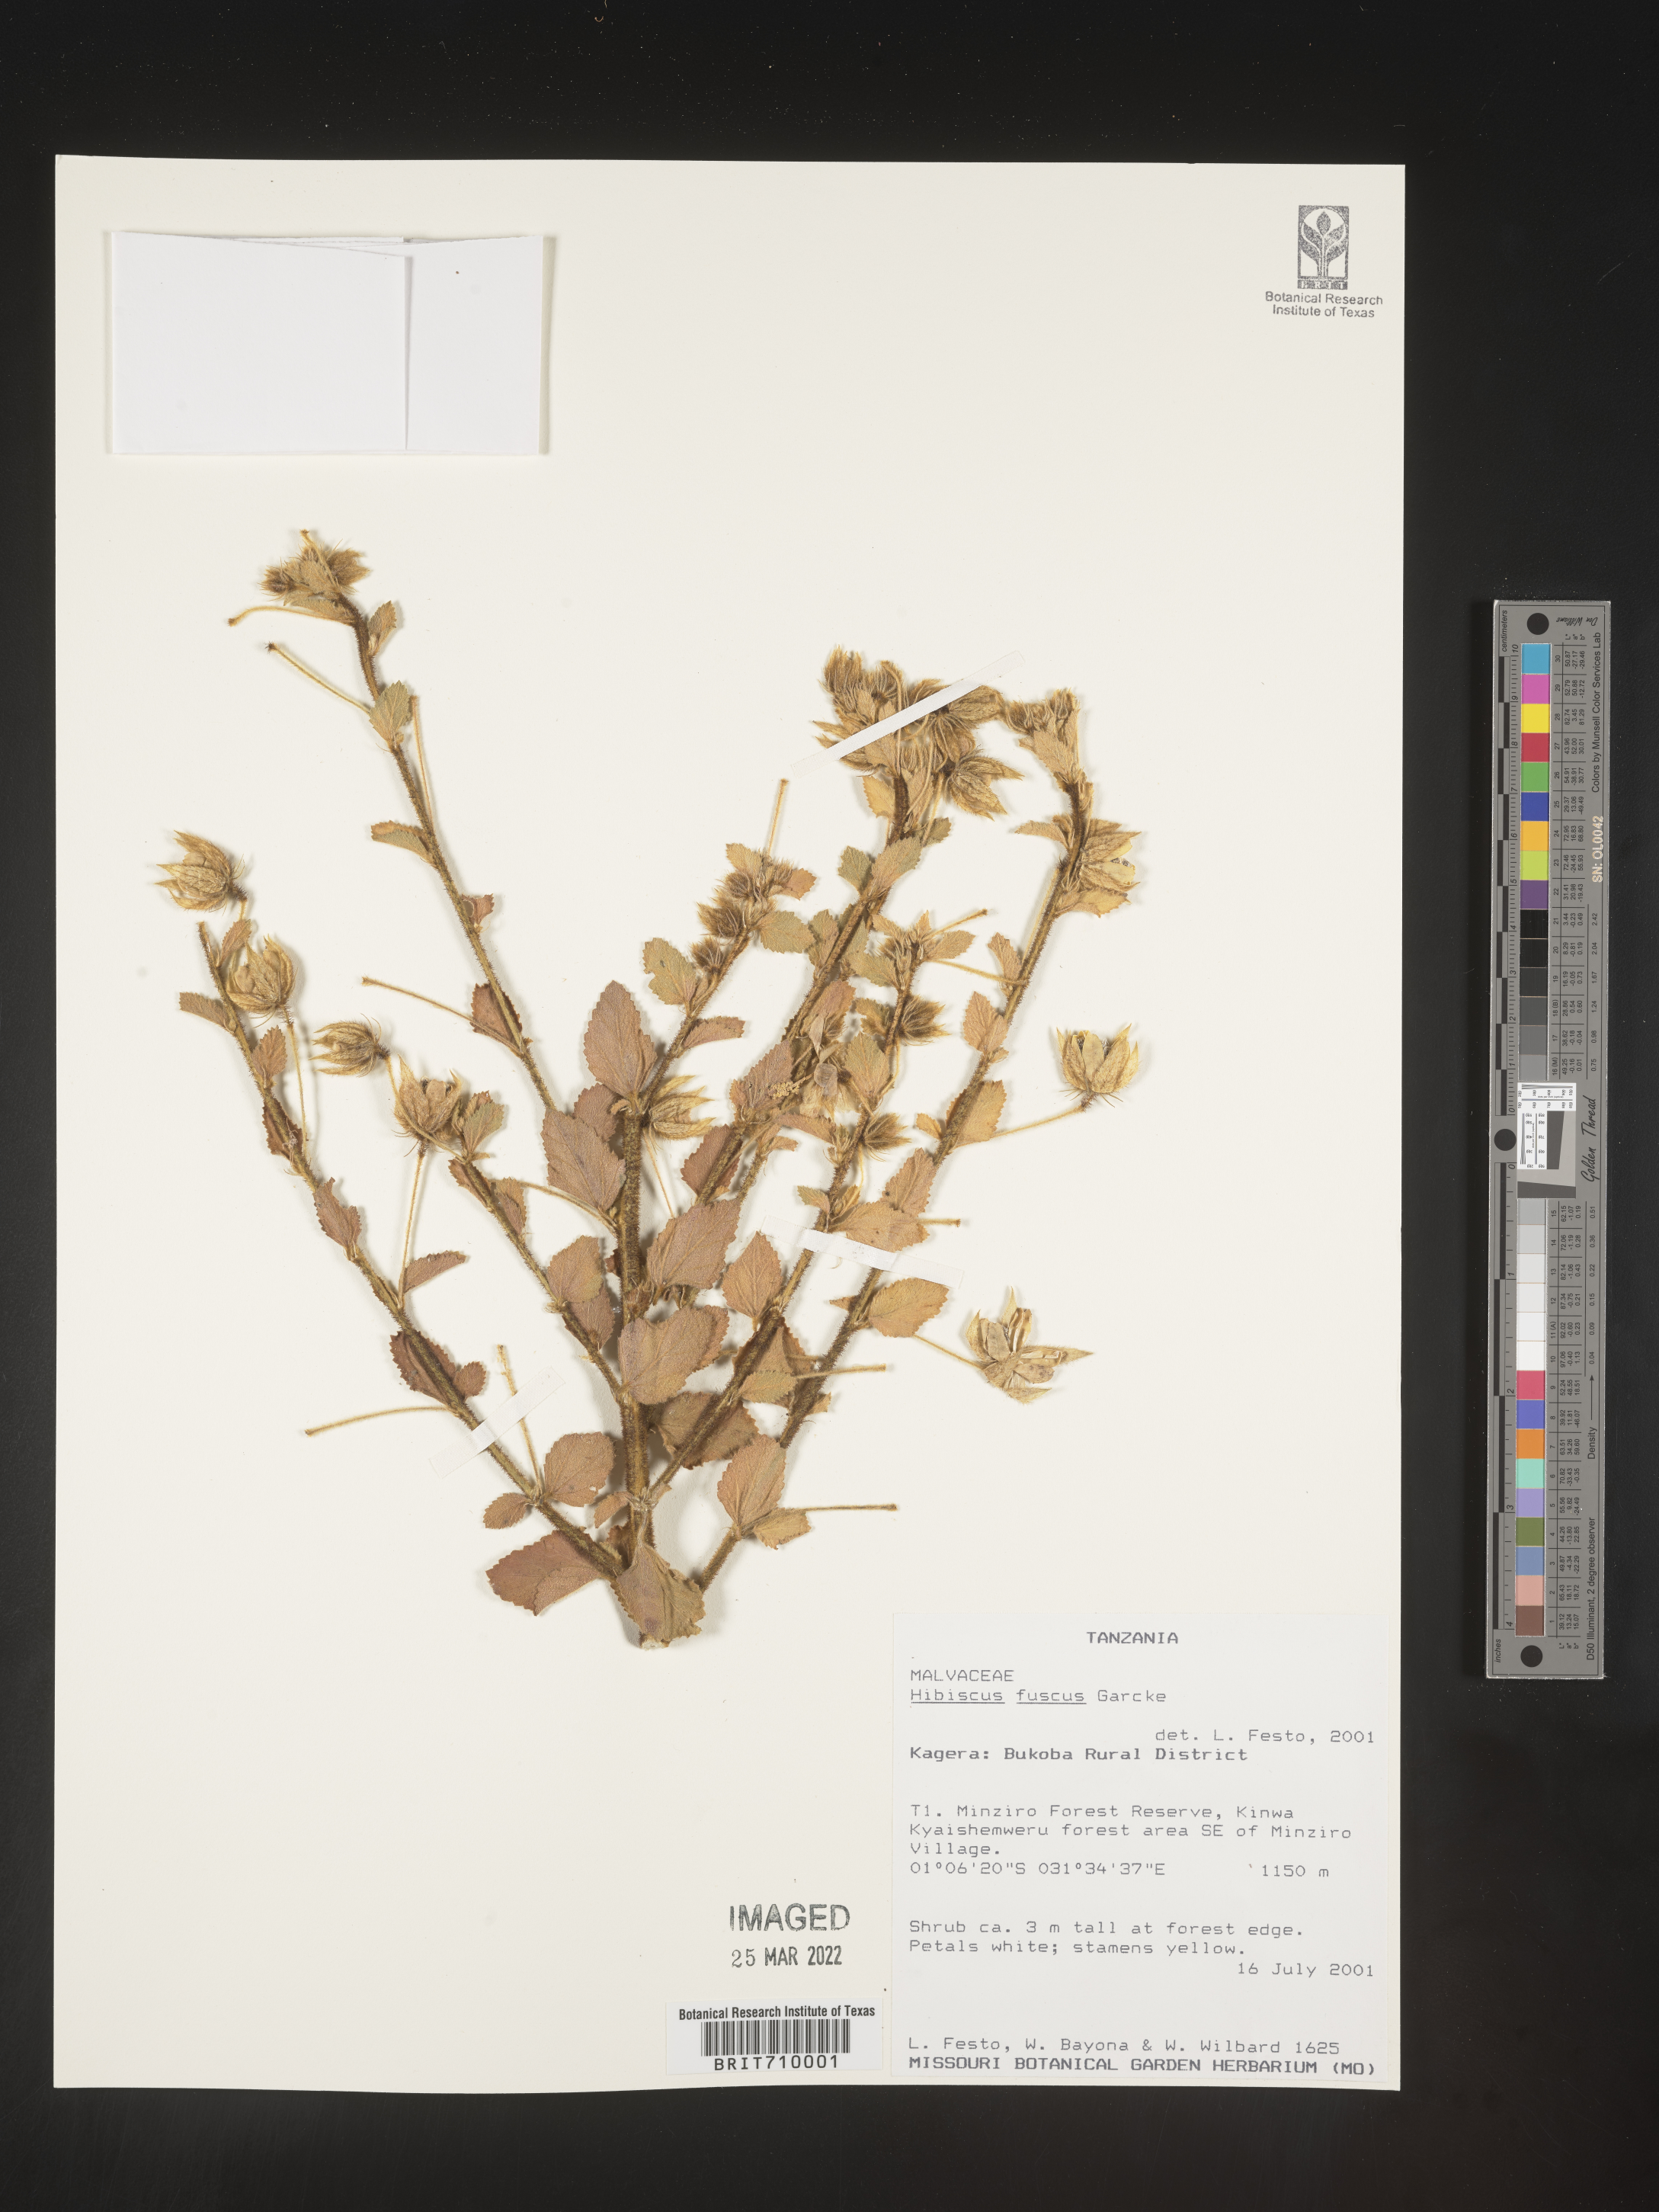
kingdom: Plantae
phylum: Tracheophyta
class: Magnoliopsida
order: Malvales
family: Malvaceae
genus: Hibiscus
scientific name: Hibiscus
